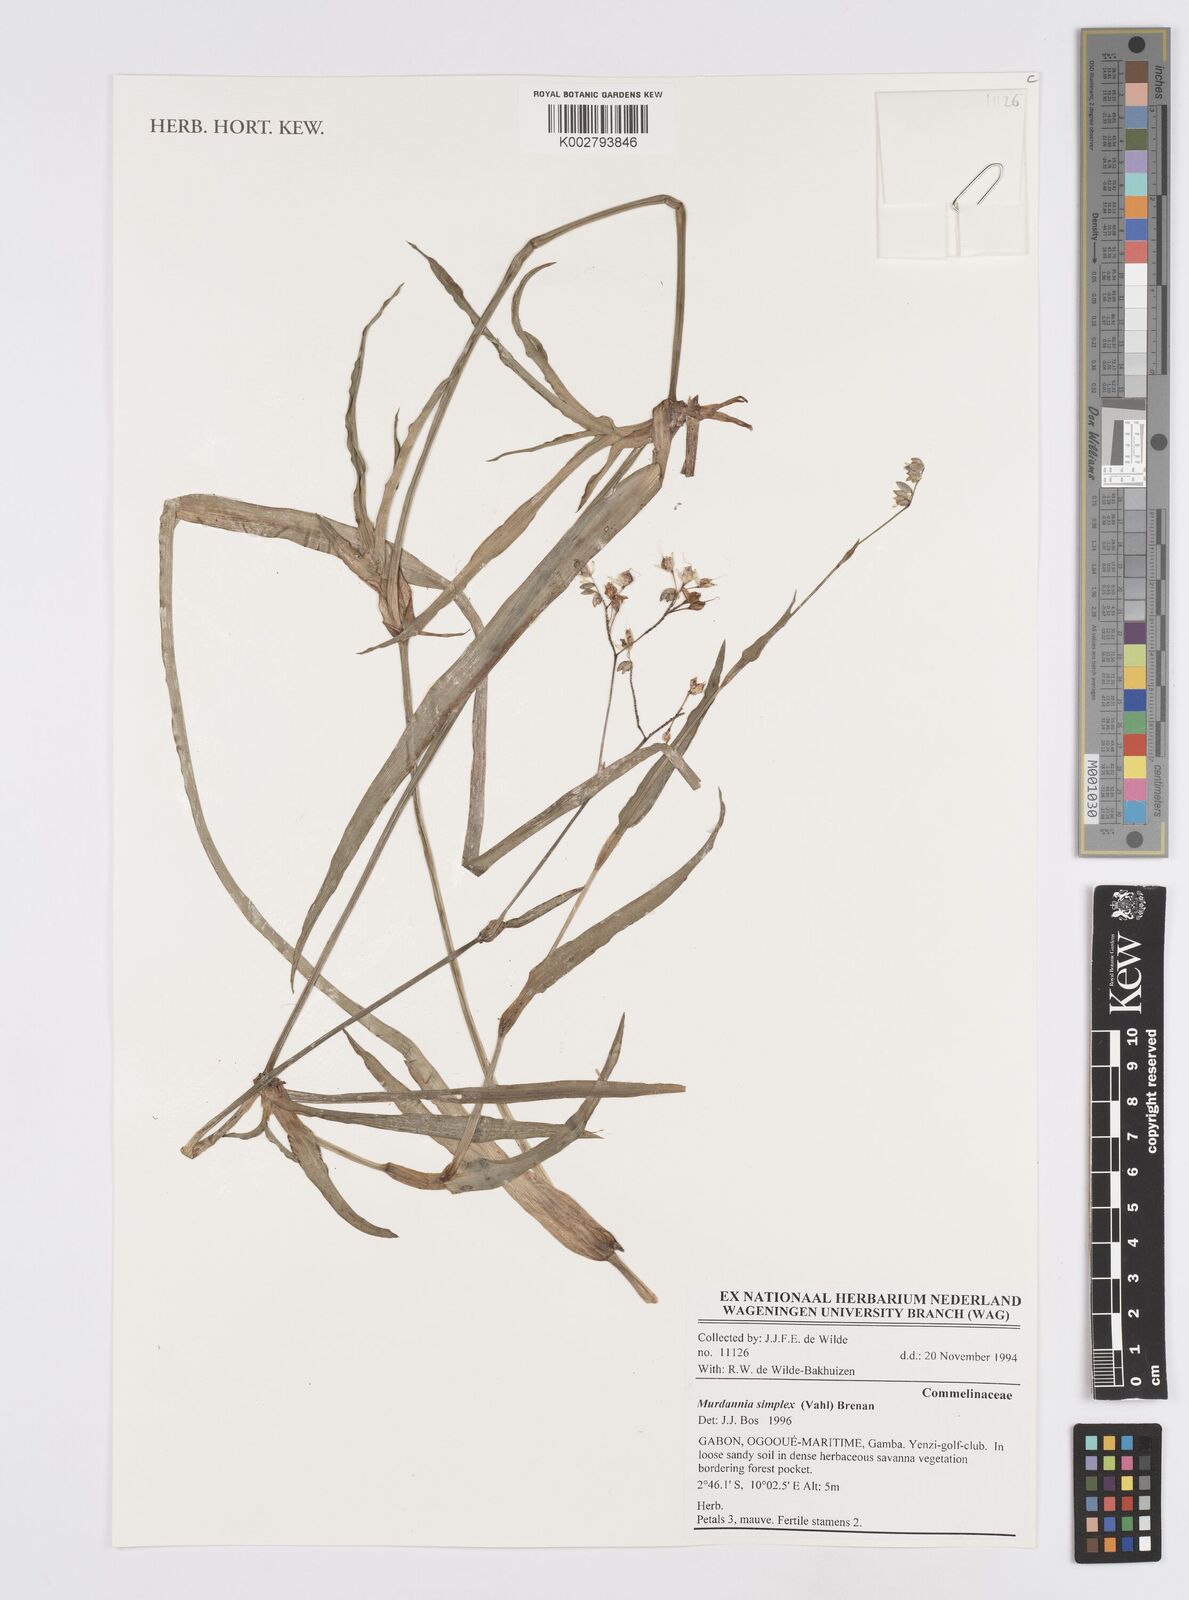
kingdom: Plantae
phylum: Tracheophyta
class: Liliopsida
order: Commelinales
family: Commelinaceae
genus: Murdannia
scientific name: Murdannia simplex
